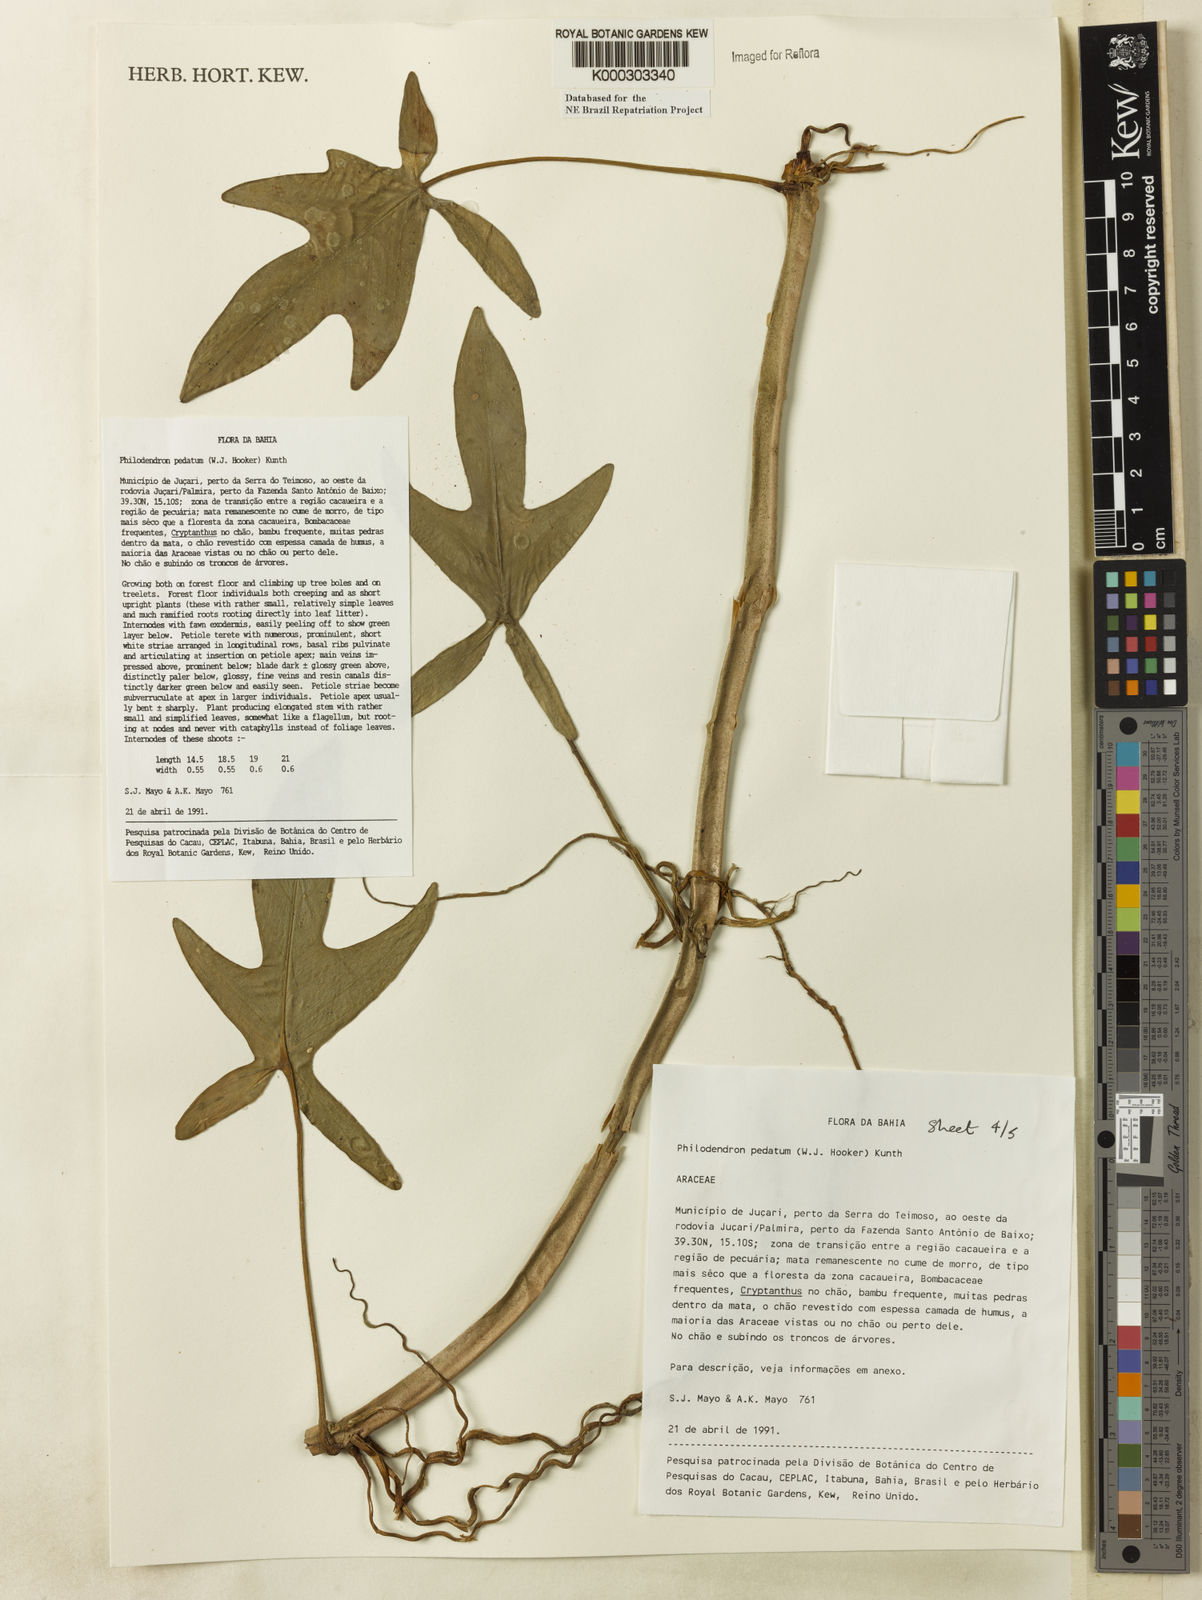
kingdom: Plantae
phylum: Tracheophyta
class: Liliopsida
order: Alismatales
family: Araceae
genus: Philodendron
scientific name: Philodendron pedatum
